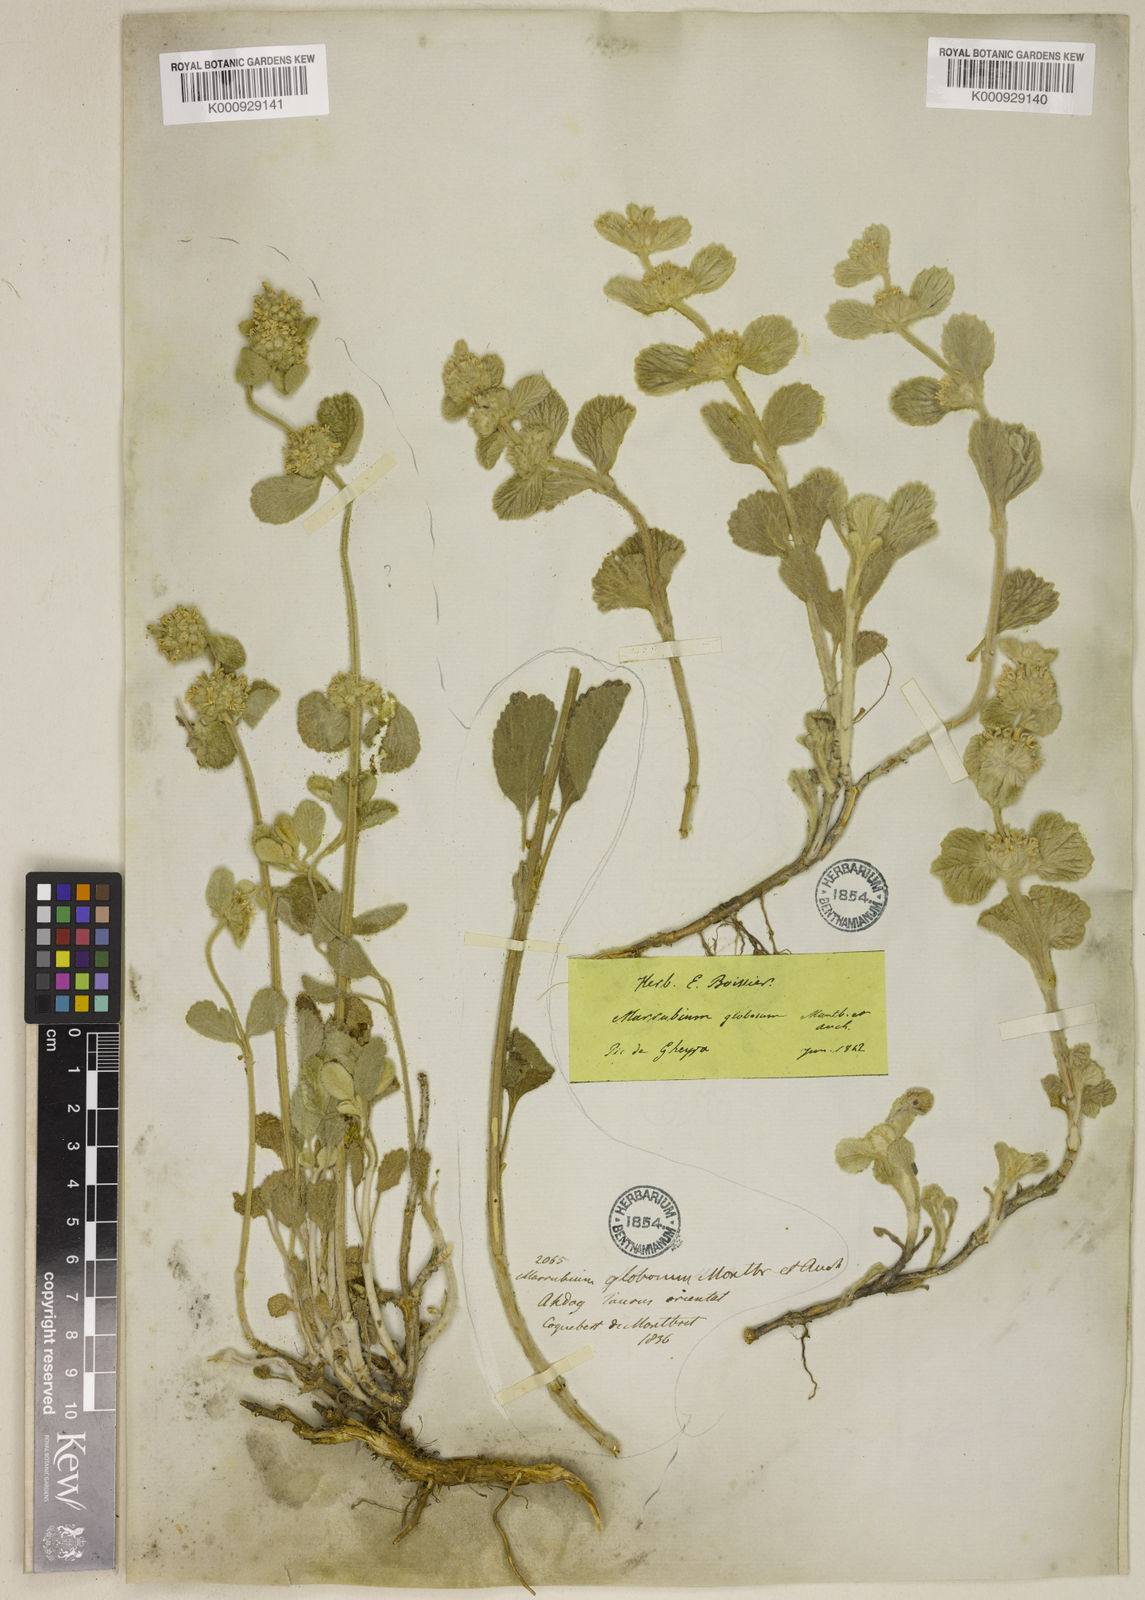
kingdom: Plantae
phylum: Tracheophyta
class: Magnoliopsida
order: Lamiales
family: Lamiaceae
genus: Marrubium
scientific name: Marrubium globosum
